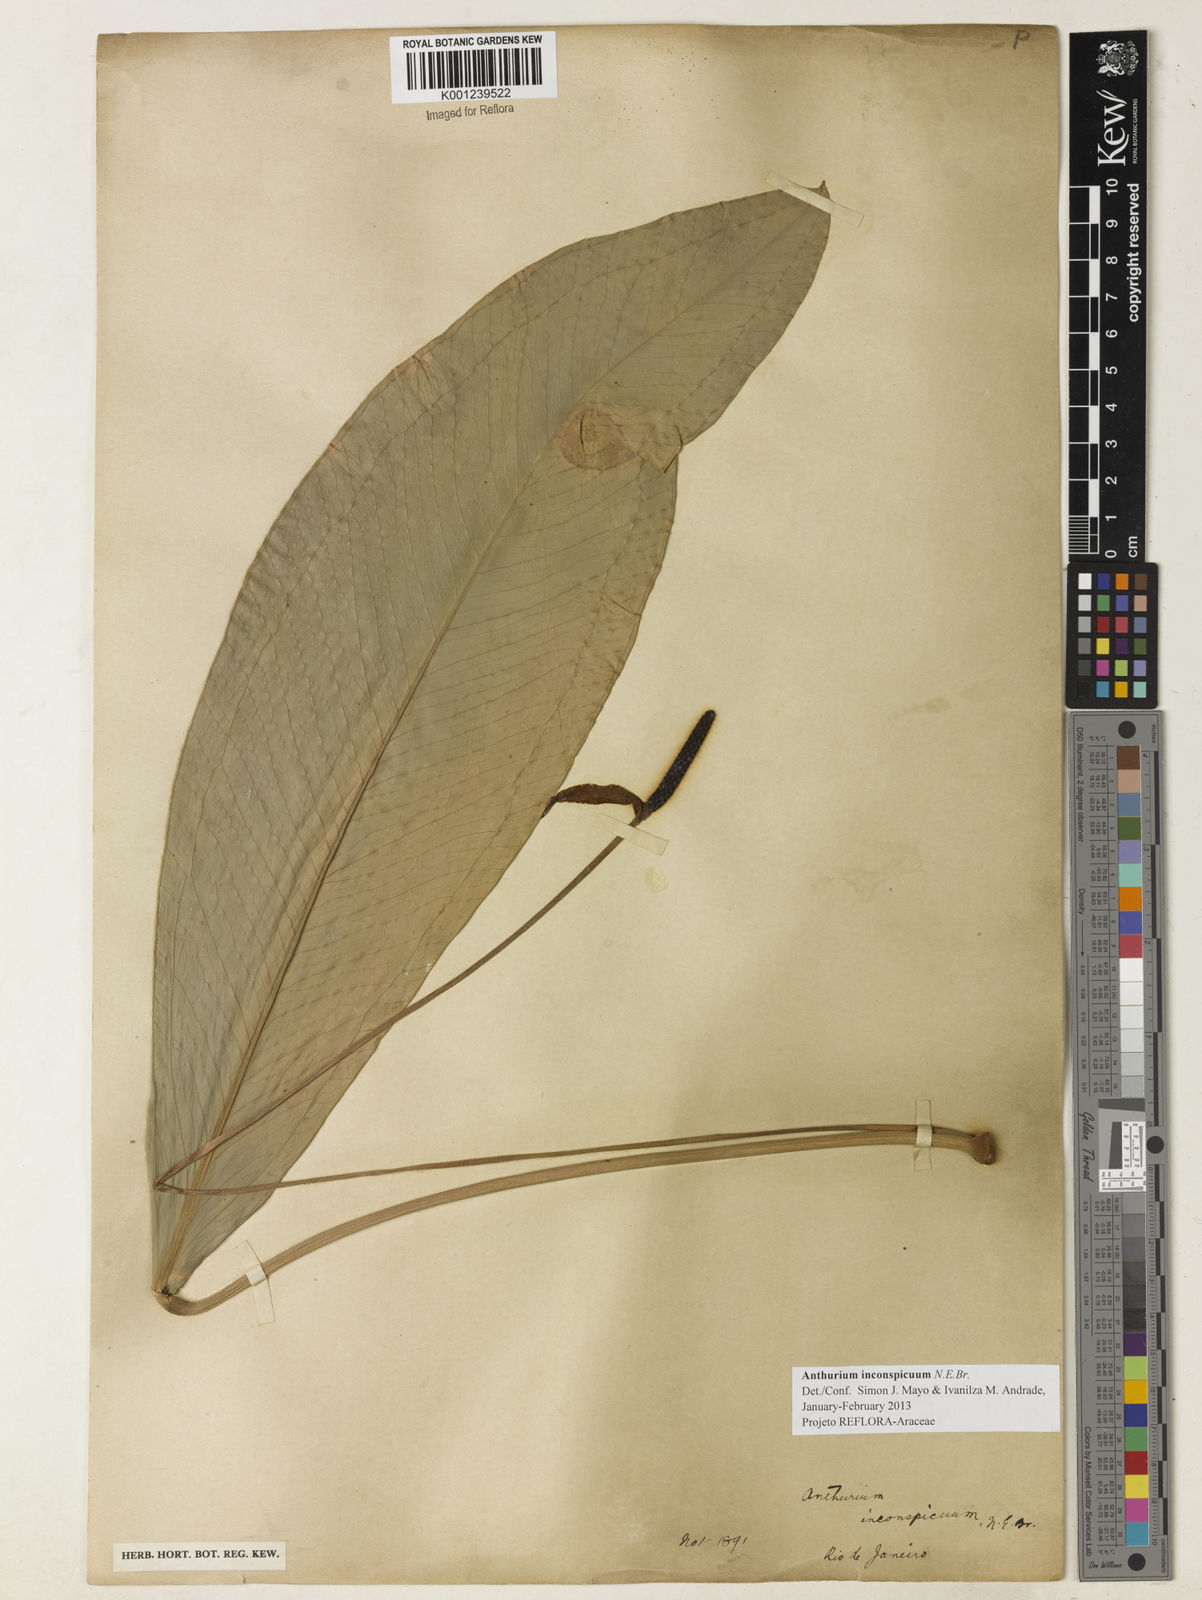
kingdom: Plantae
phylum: Tracheophyta
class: Liliopsida
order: Alismatales
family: Araceae
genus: Anthurium
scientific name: Anthurium inconspicuum
